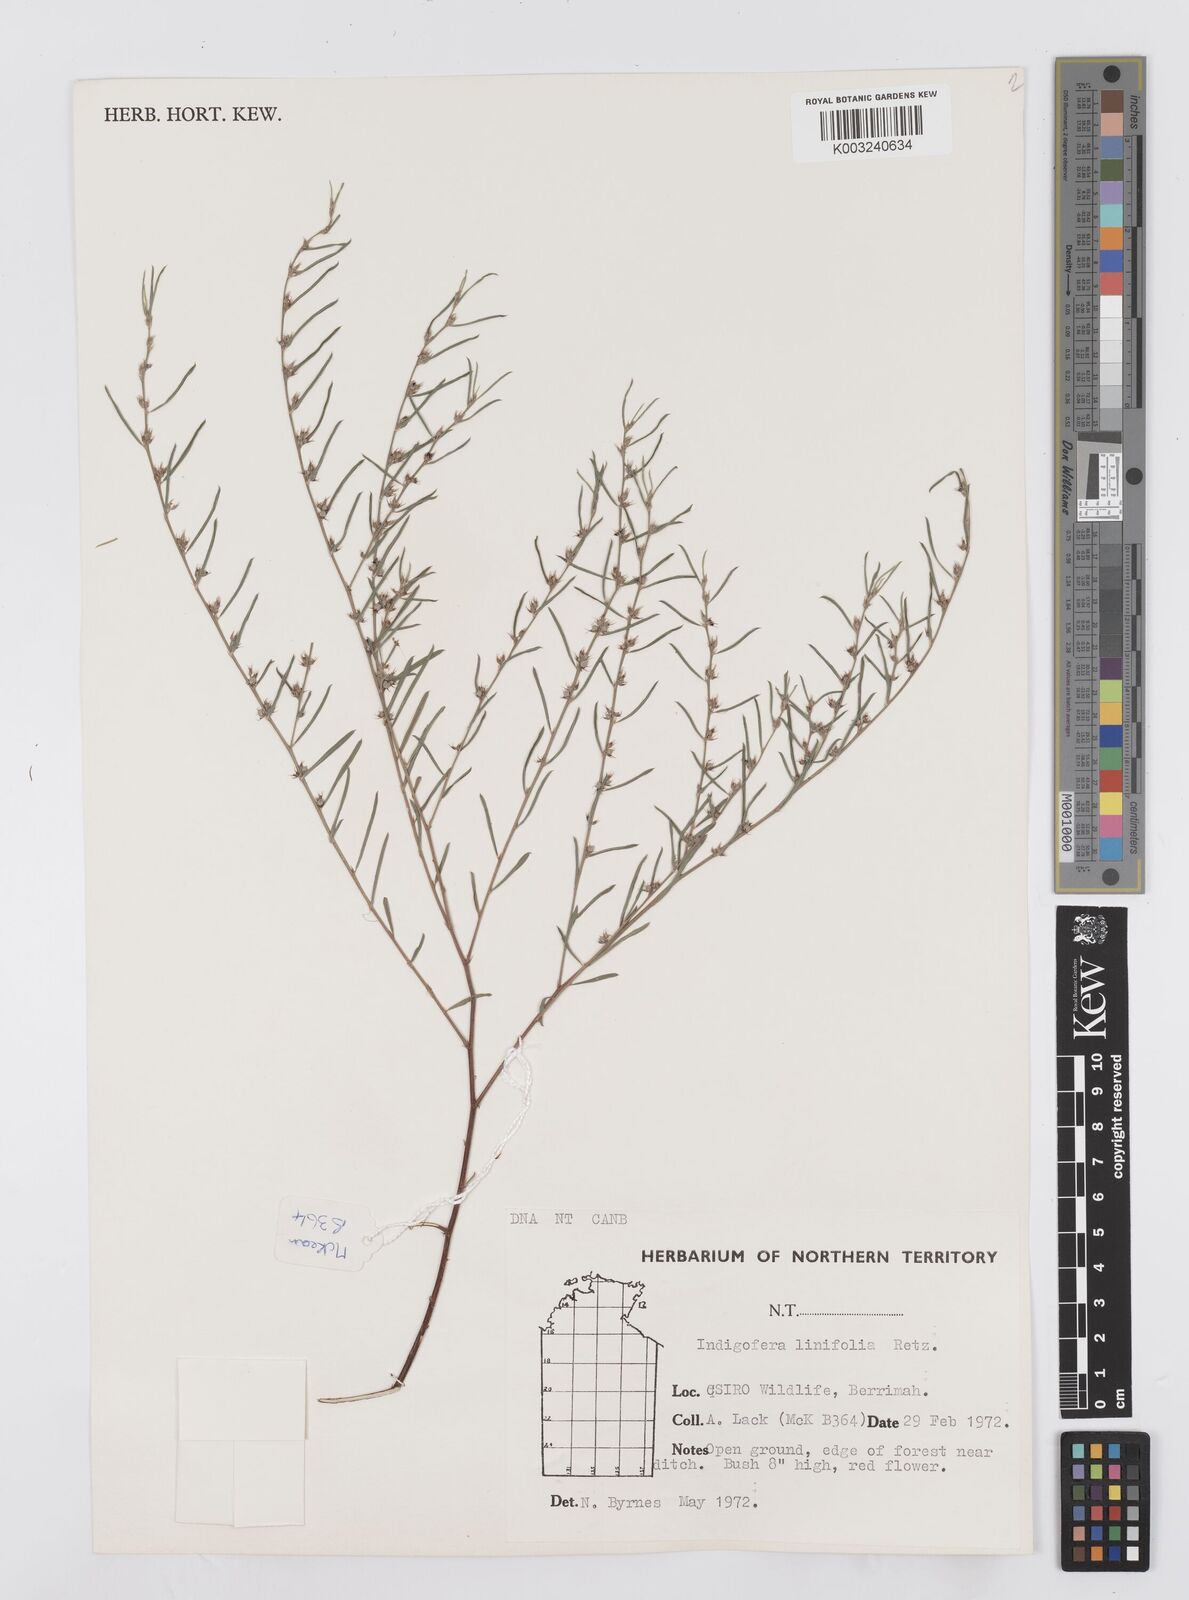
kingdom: Plantae
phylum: Tracheophyta
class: Magnoliopsida
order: Fabales
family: Fabaceae
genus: Indigofera
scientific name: Indigofera linifolia
